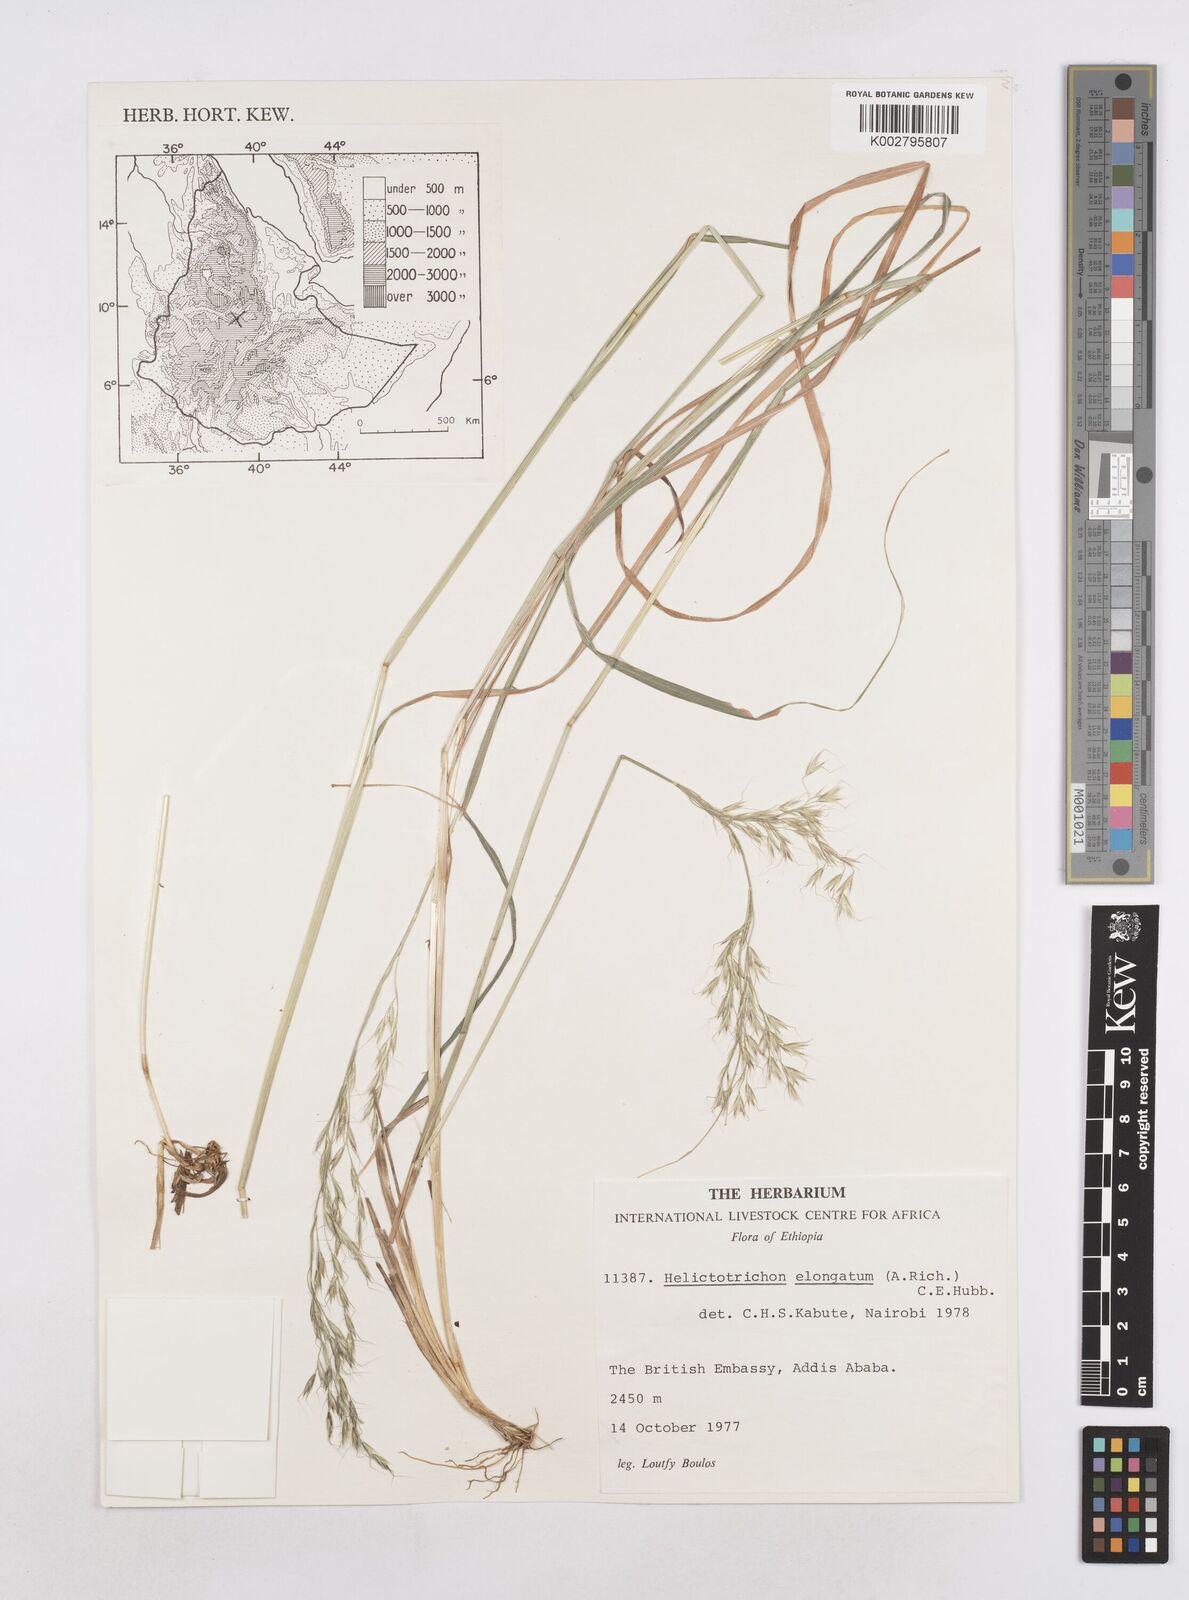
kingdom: Plantae
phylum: Tracheophyta
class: Liliopsida
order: Poales
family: Poaceae
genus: Trisetopsis
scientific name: Trisetopsis elongata
